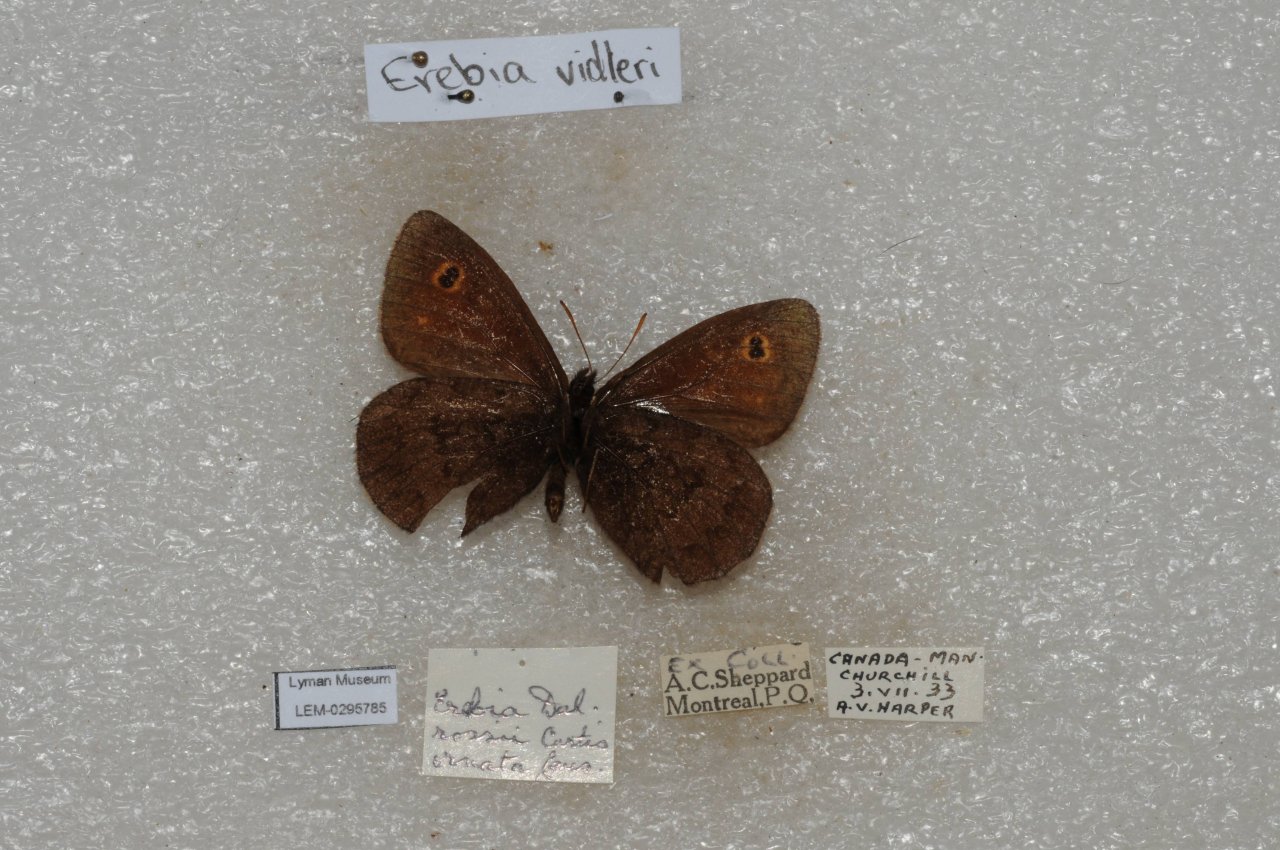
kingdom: Animalia
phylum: Arthropoda
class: Insecta
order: Lepidoptera
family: Nymphalidae
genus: Erebia
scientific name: Erebia rossii
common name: Ross's Alpine
